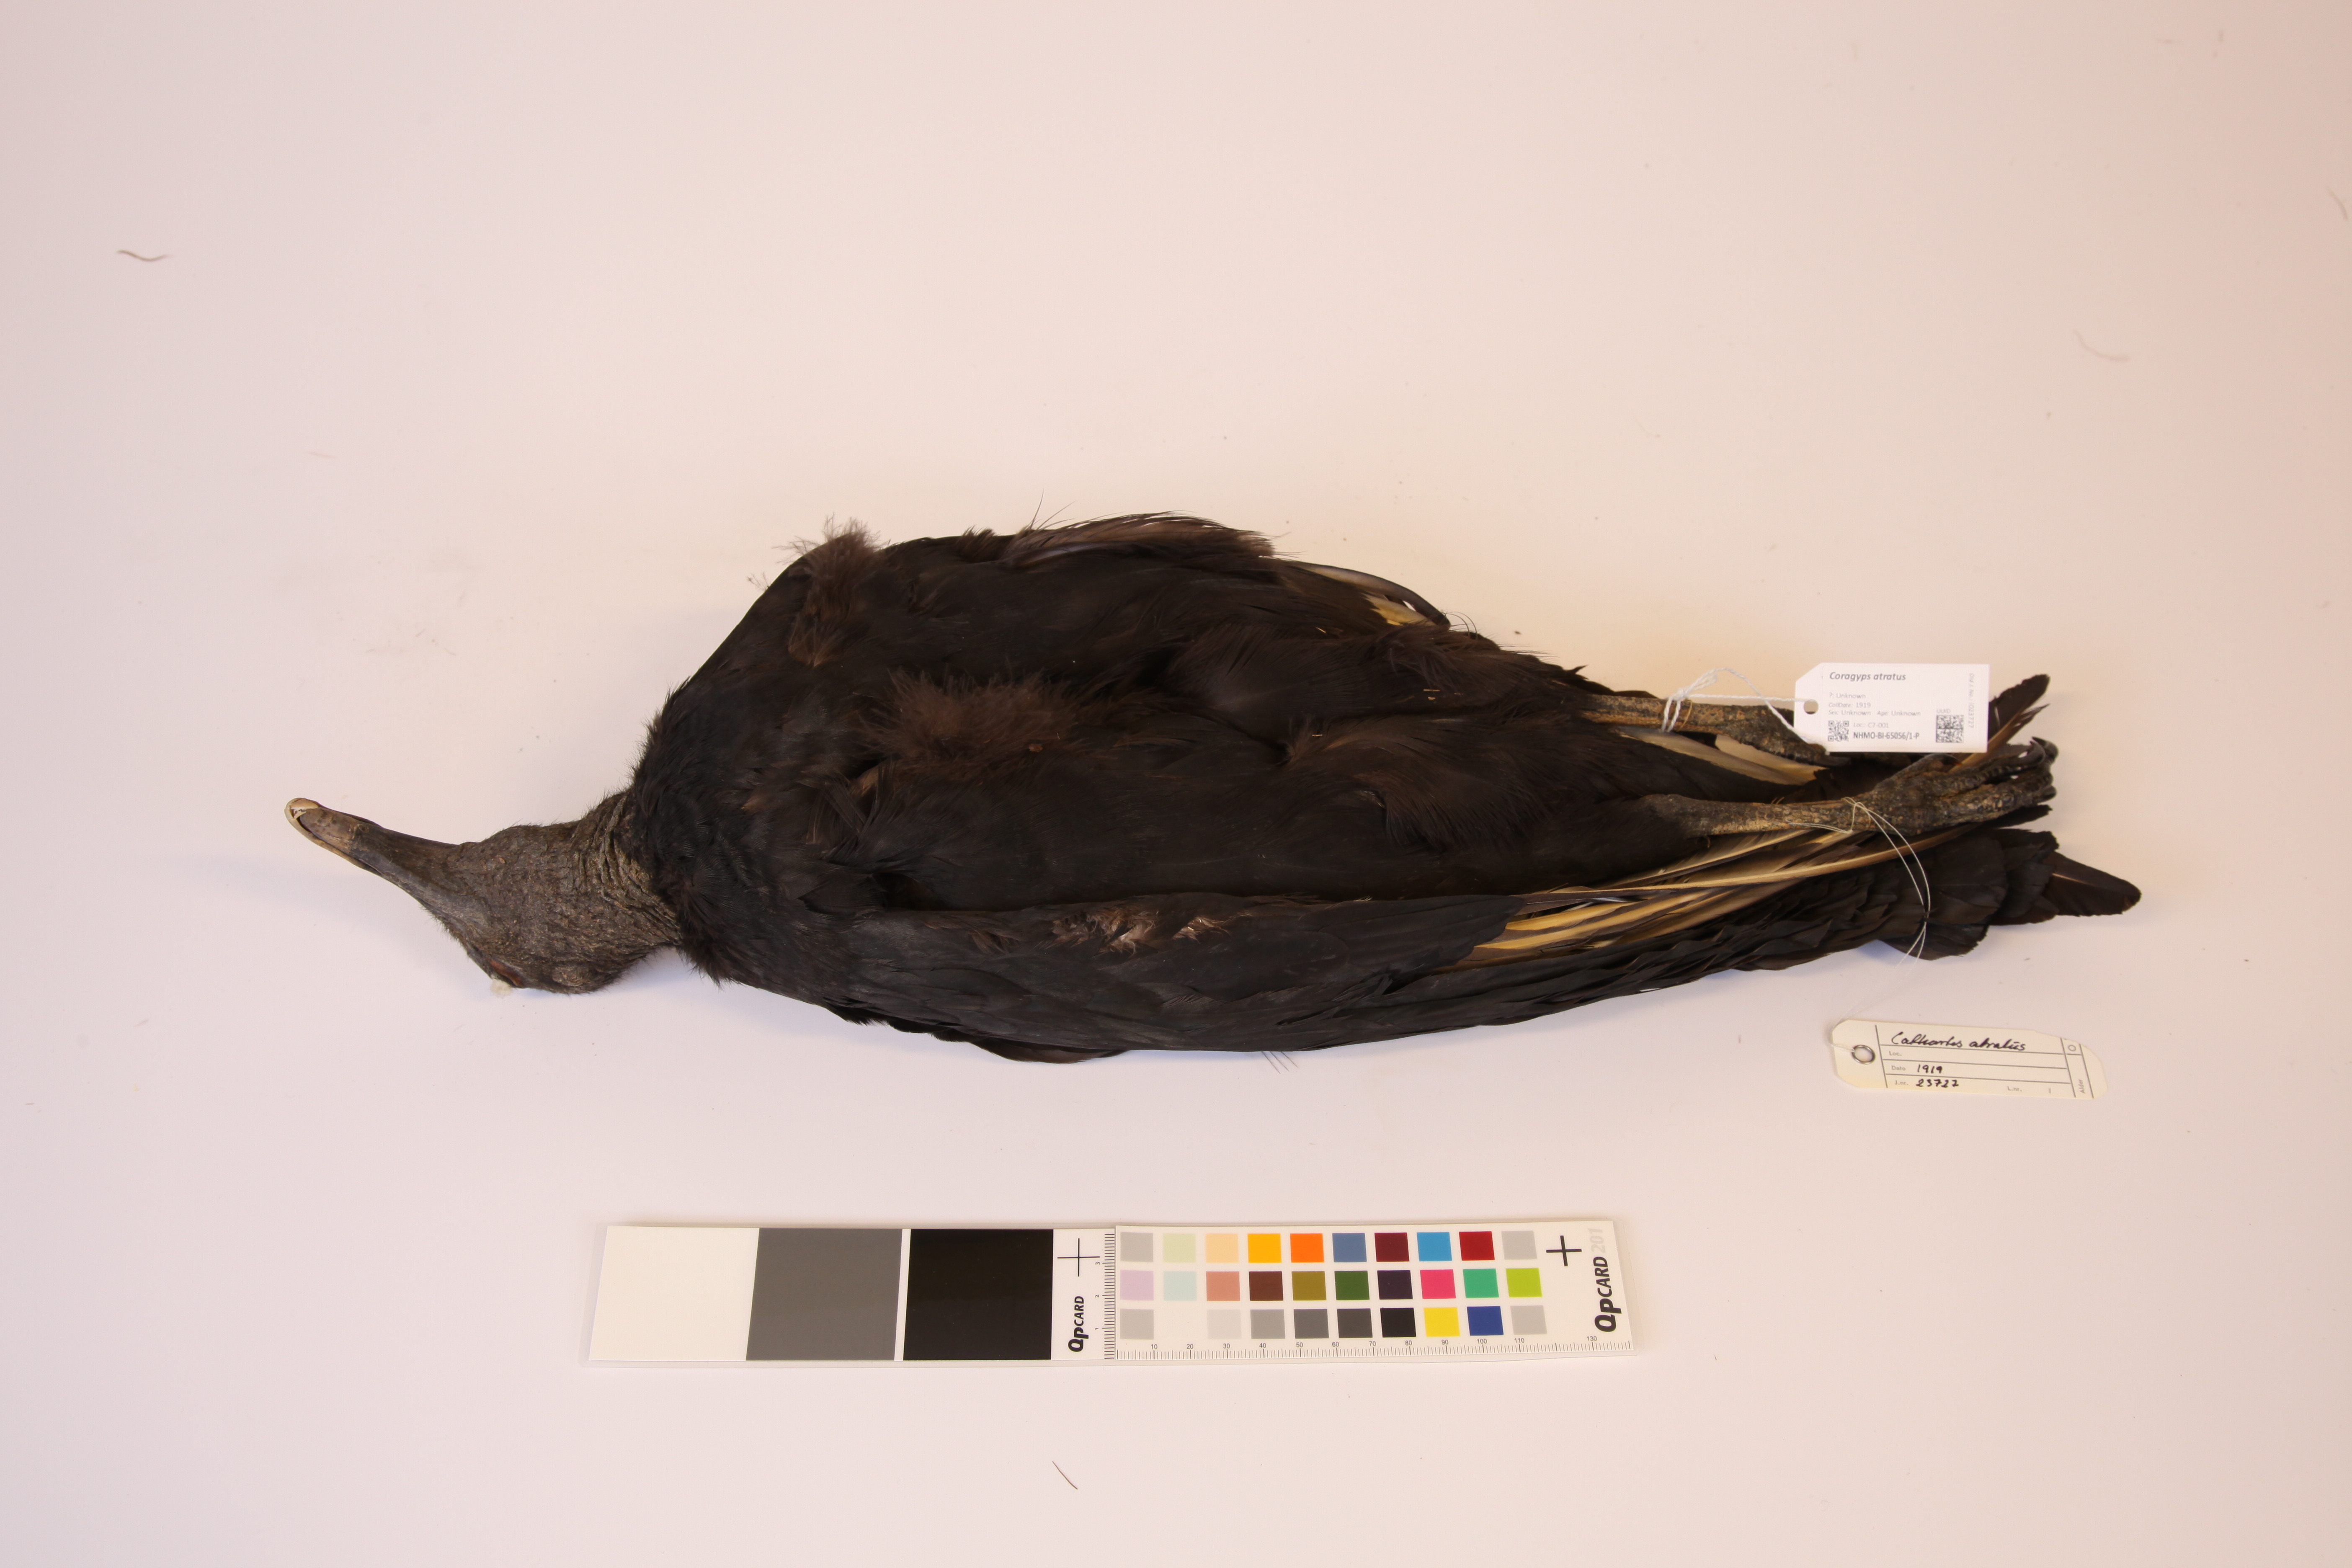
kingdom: Animalia
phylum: Chordata
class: Aves
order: Accipitriformes
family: Cathartidae
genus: Coragyps
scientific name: Coragyps atratus
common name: Black vulture
